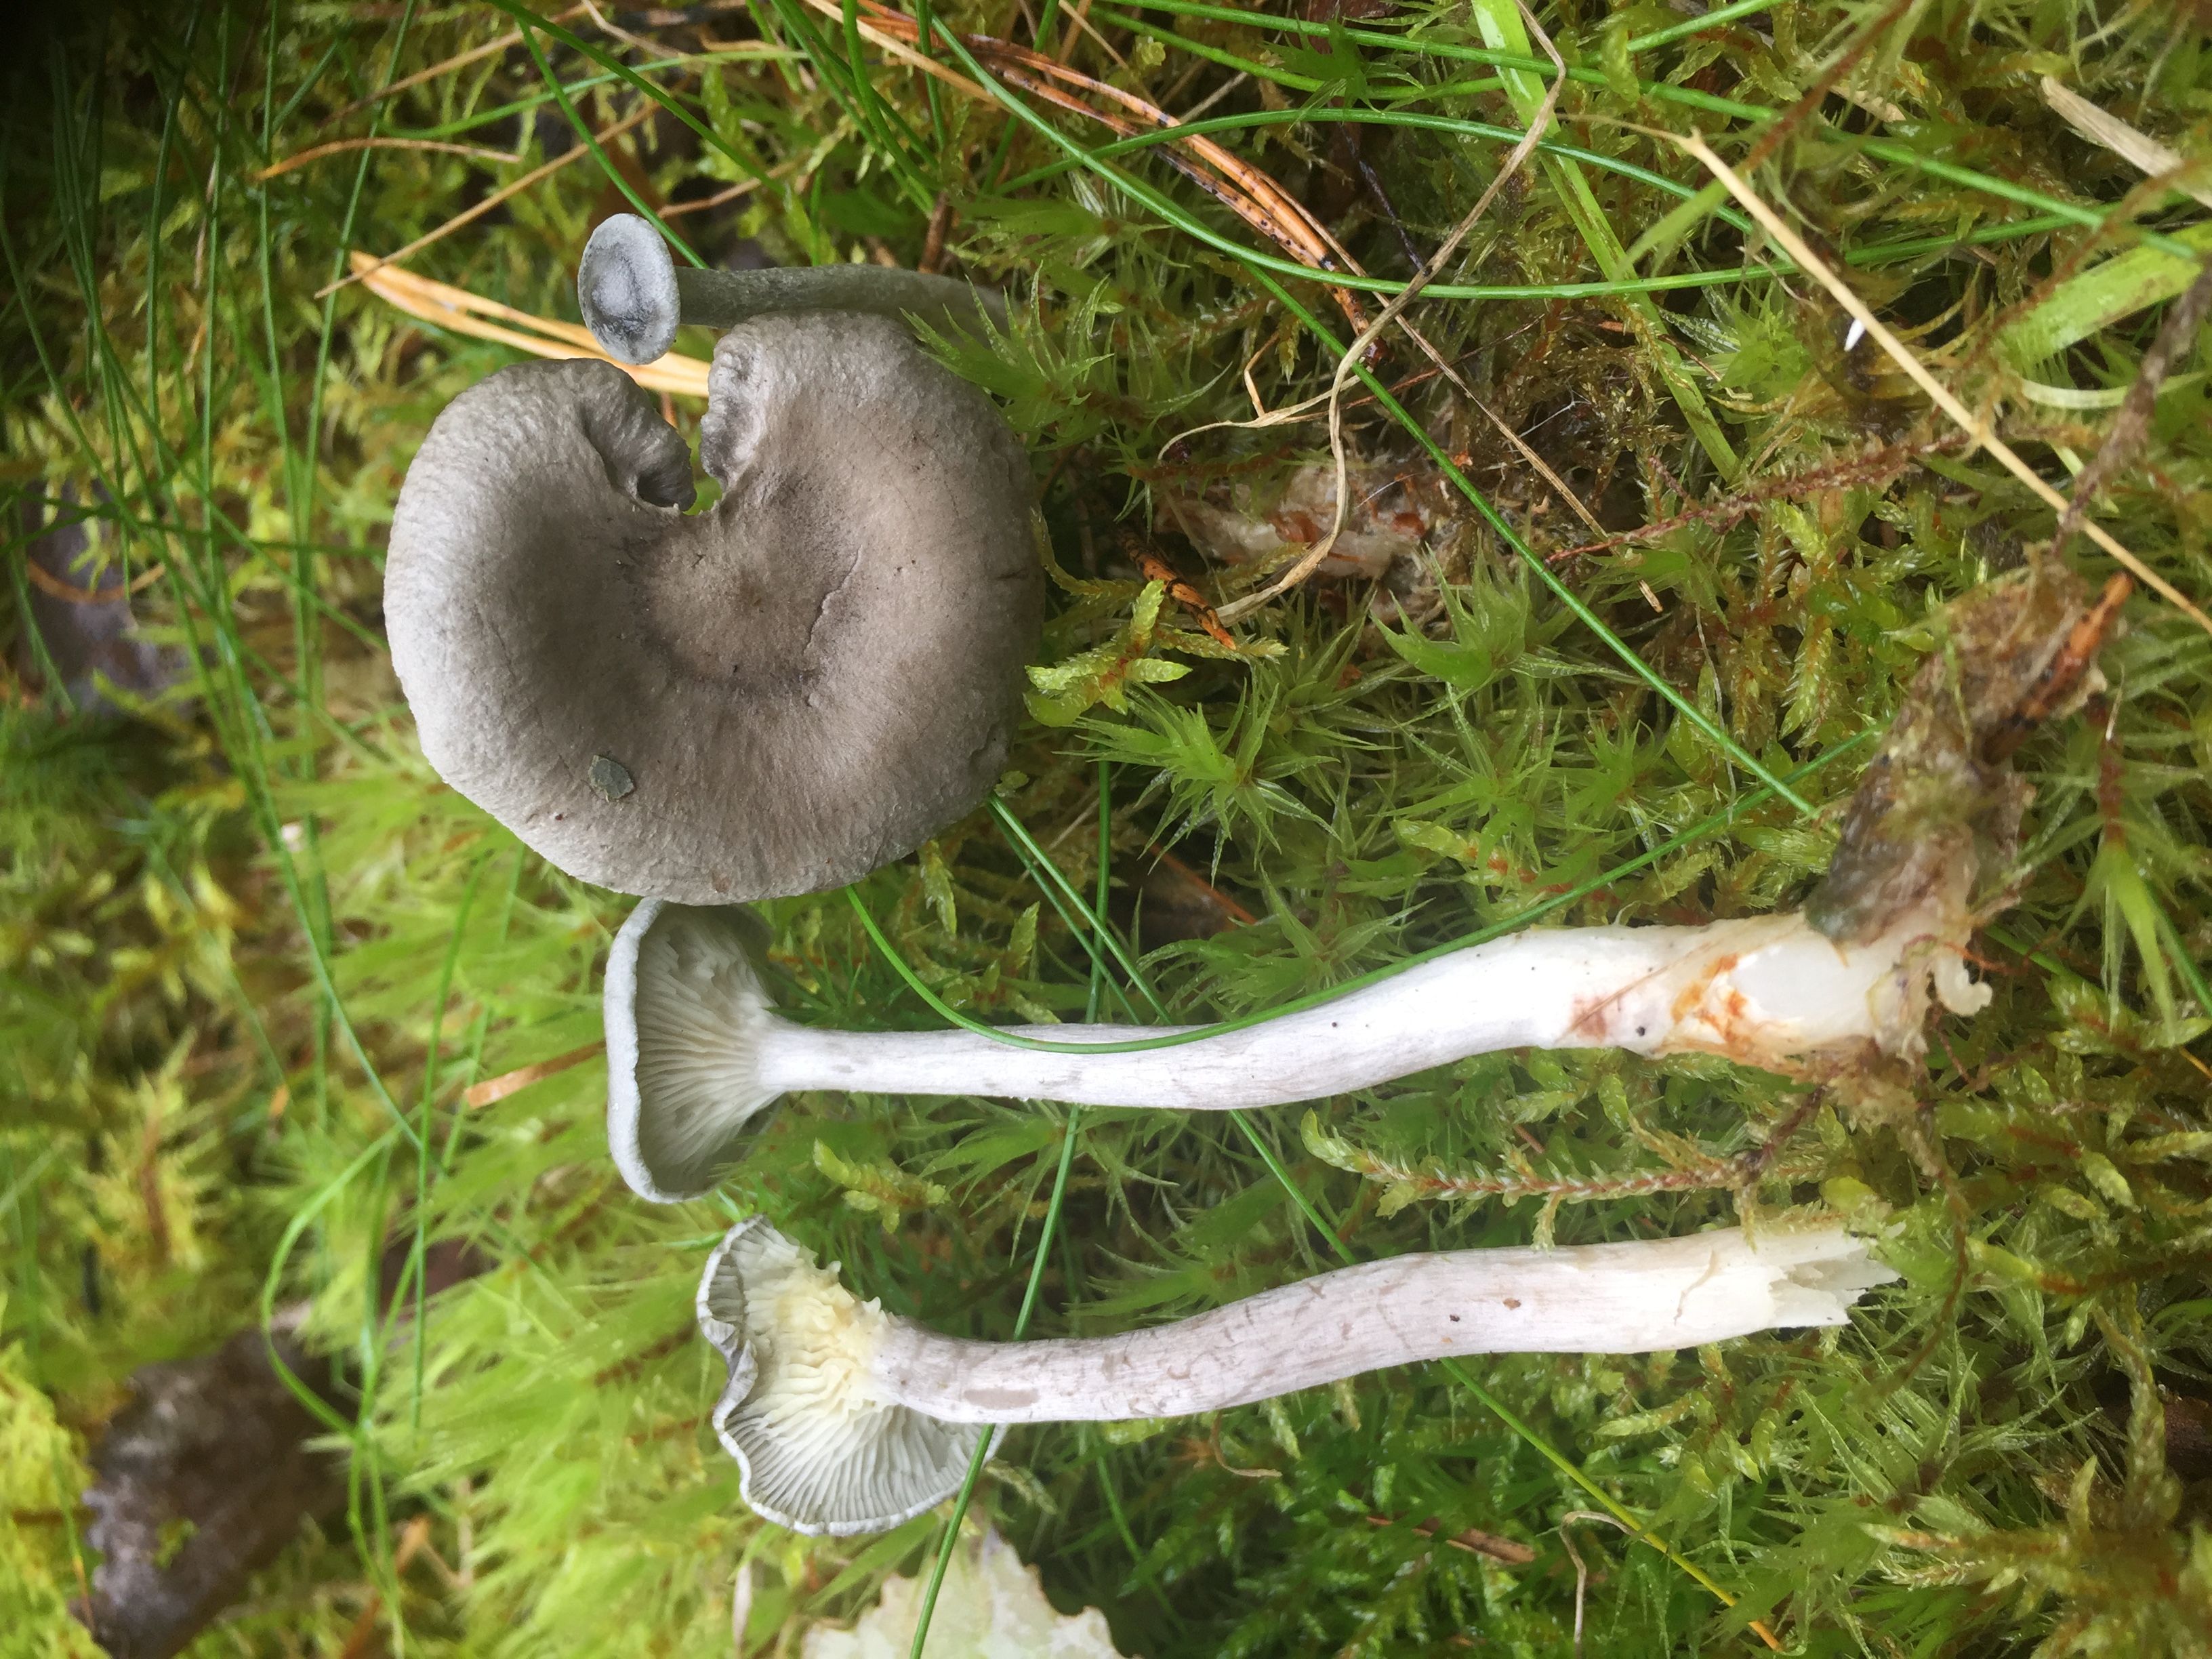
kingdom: Fungi
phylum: Basidiomycota
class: Agaricomycetes
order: Agaricales
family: Hygrophoraceae
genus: Cantharellula
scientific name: Cantharellula umbonata
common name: The humpback
